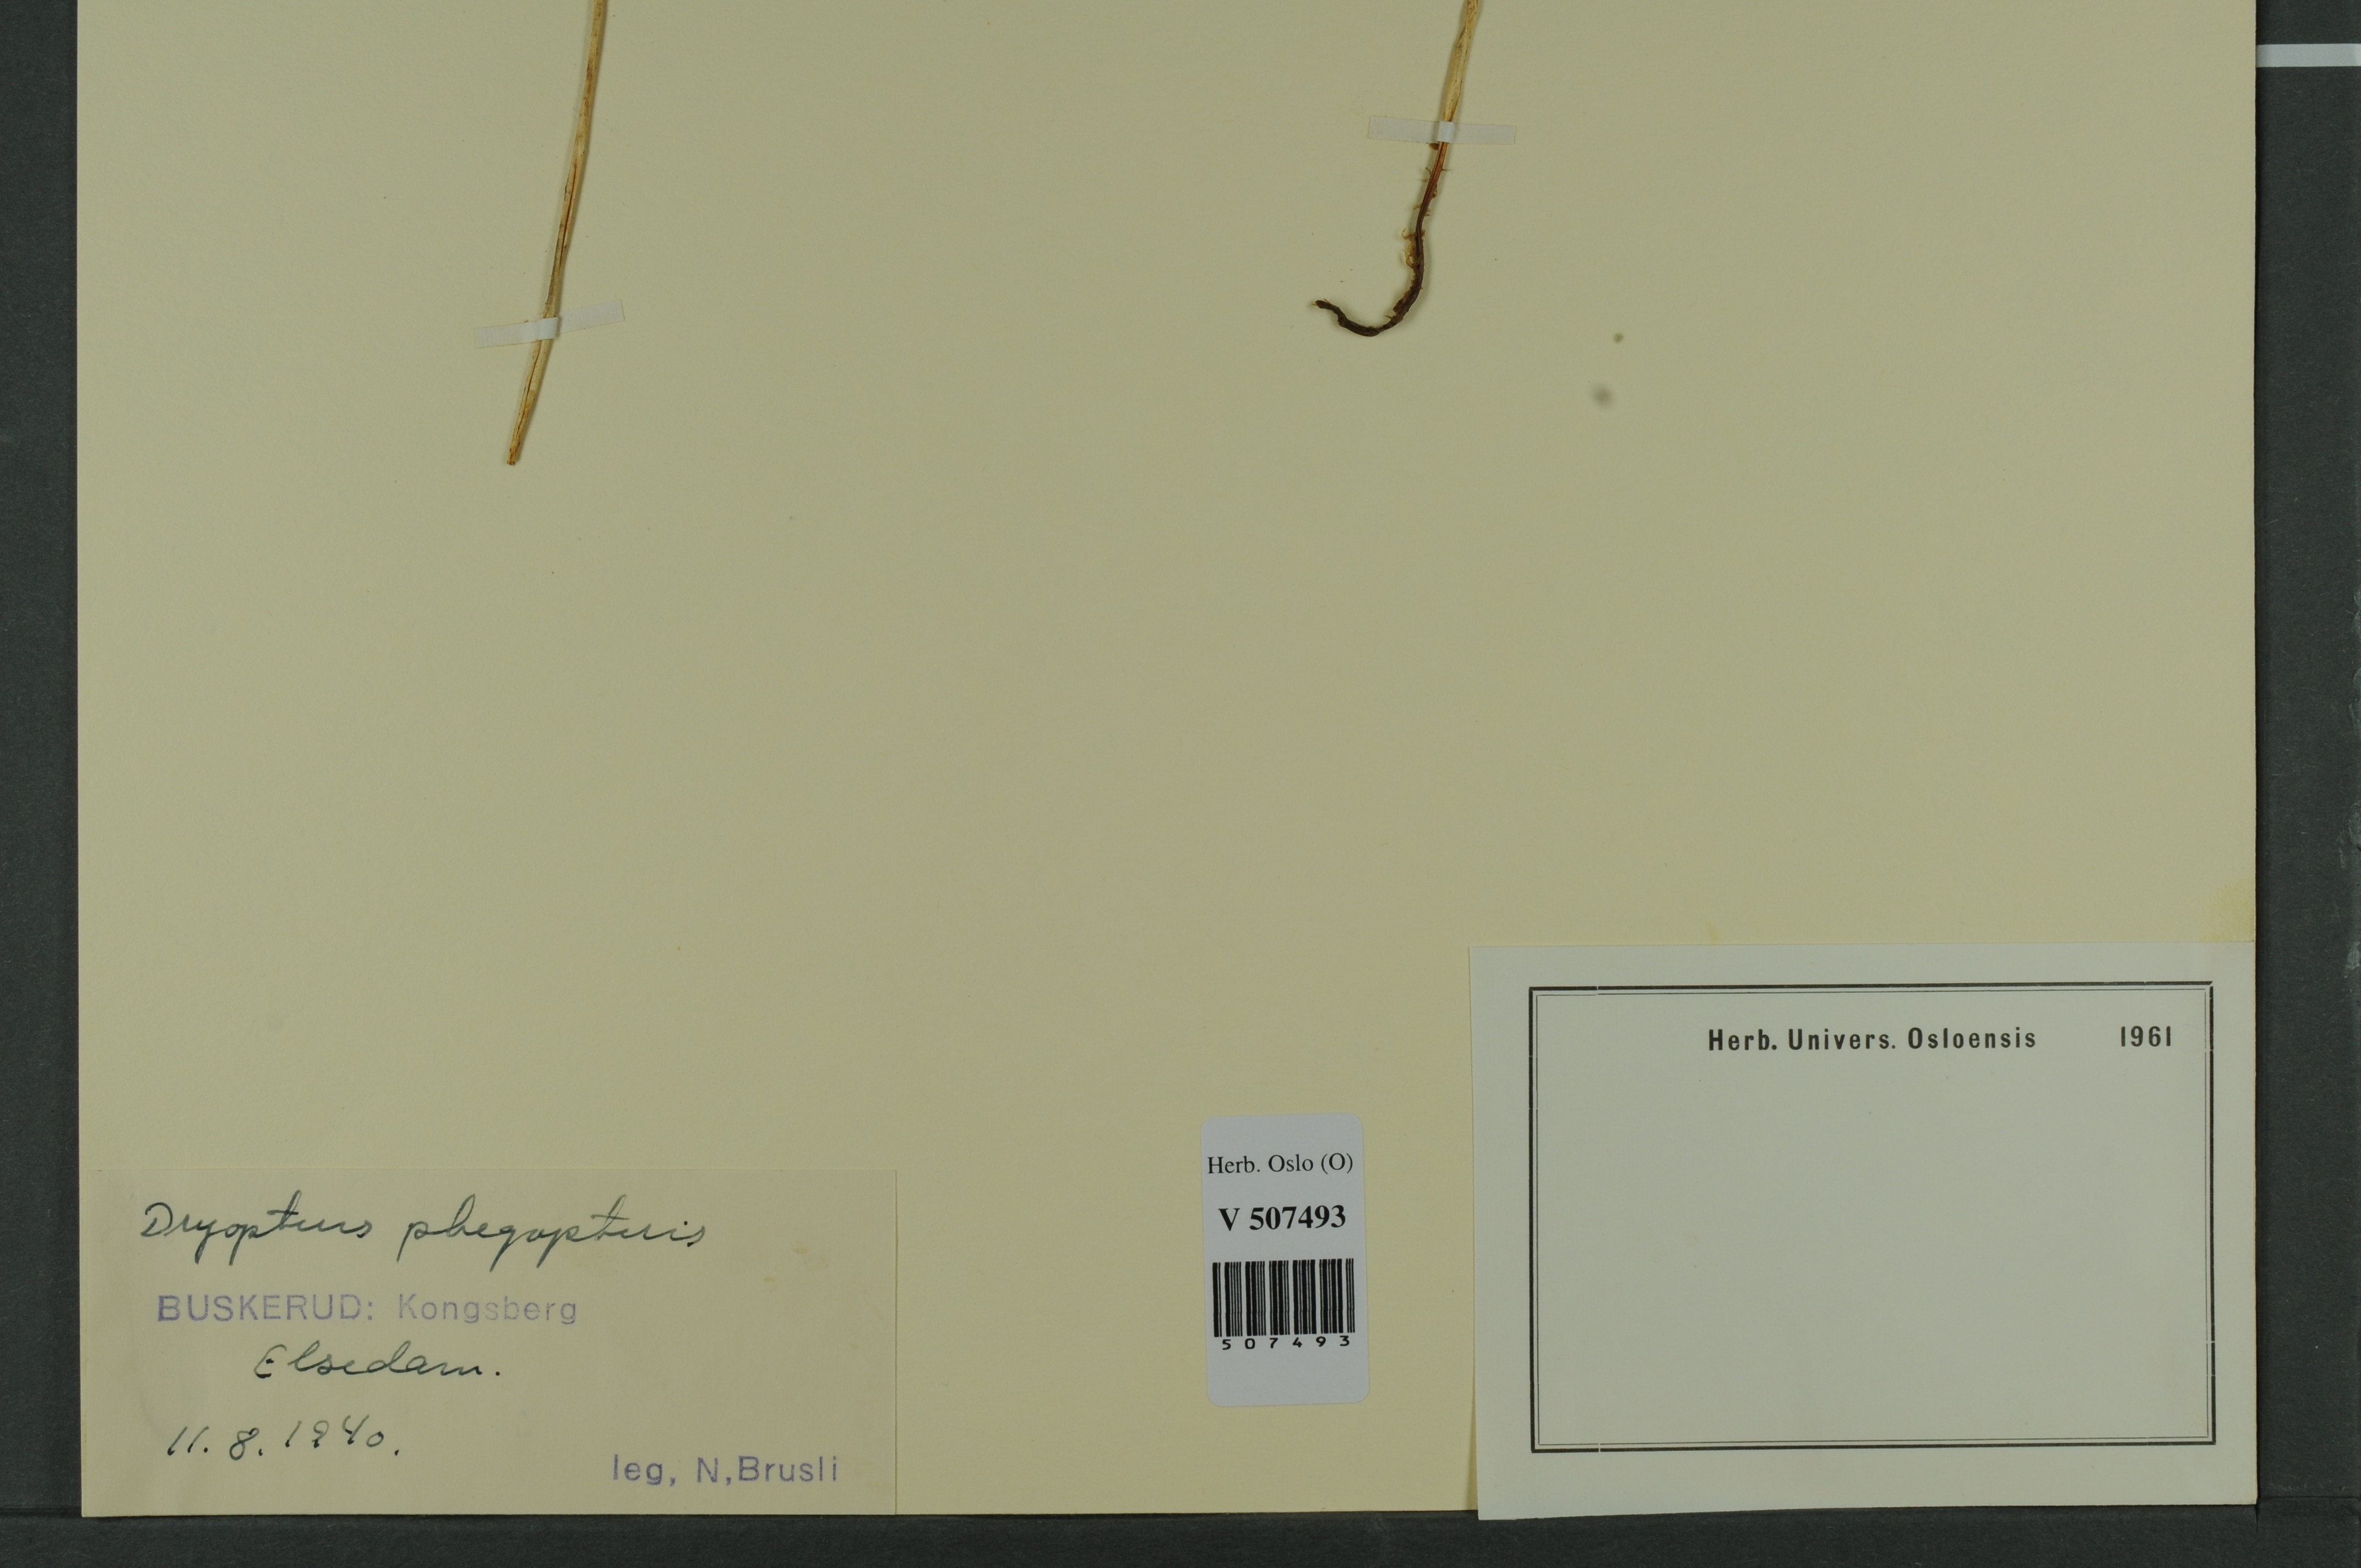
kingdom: Plantae
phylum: Tracheophyta
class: Polypodiopsida
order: Polypodiales
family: Thelypteridaceae
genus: Phegopteris
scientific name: Phegopteris connectilis
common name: Beech fern
